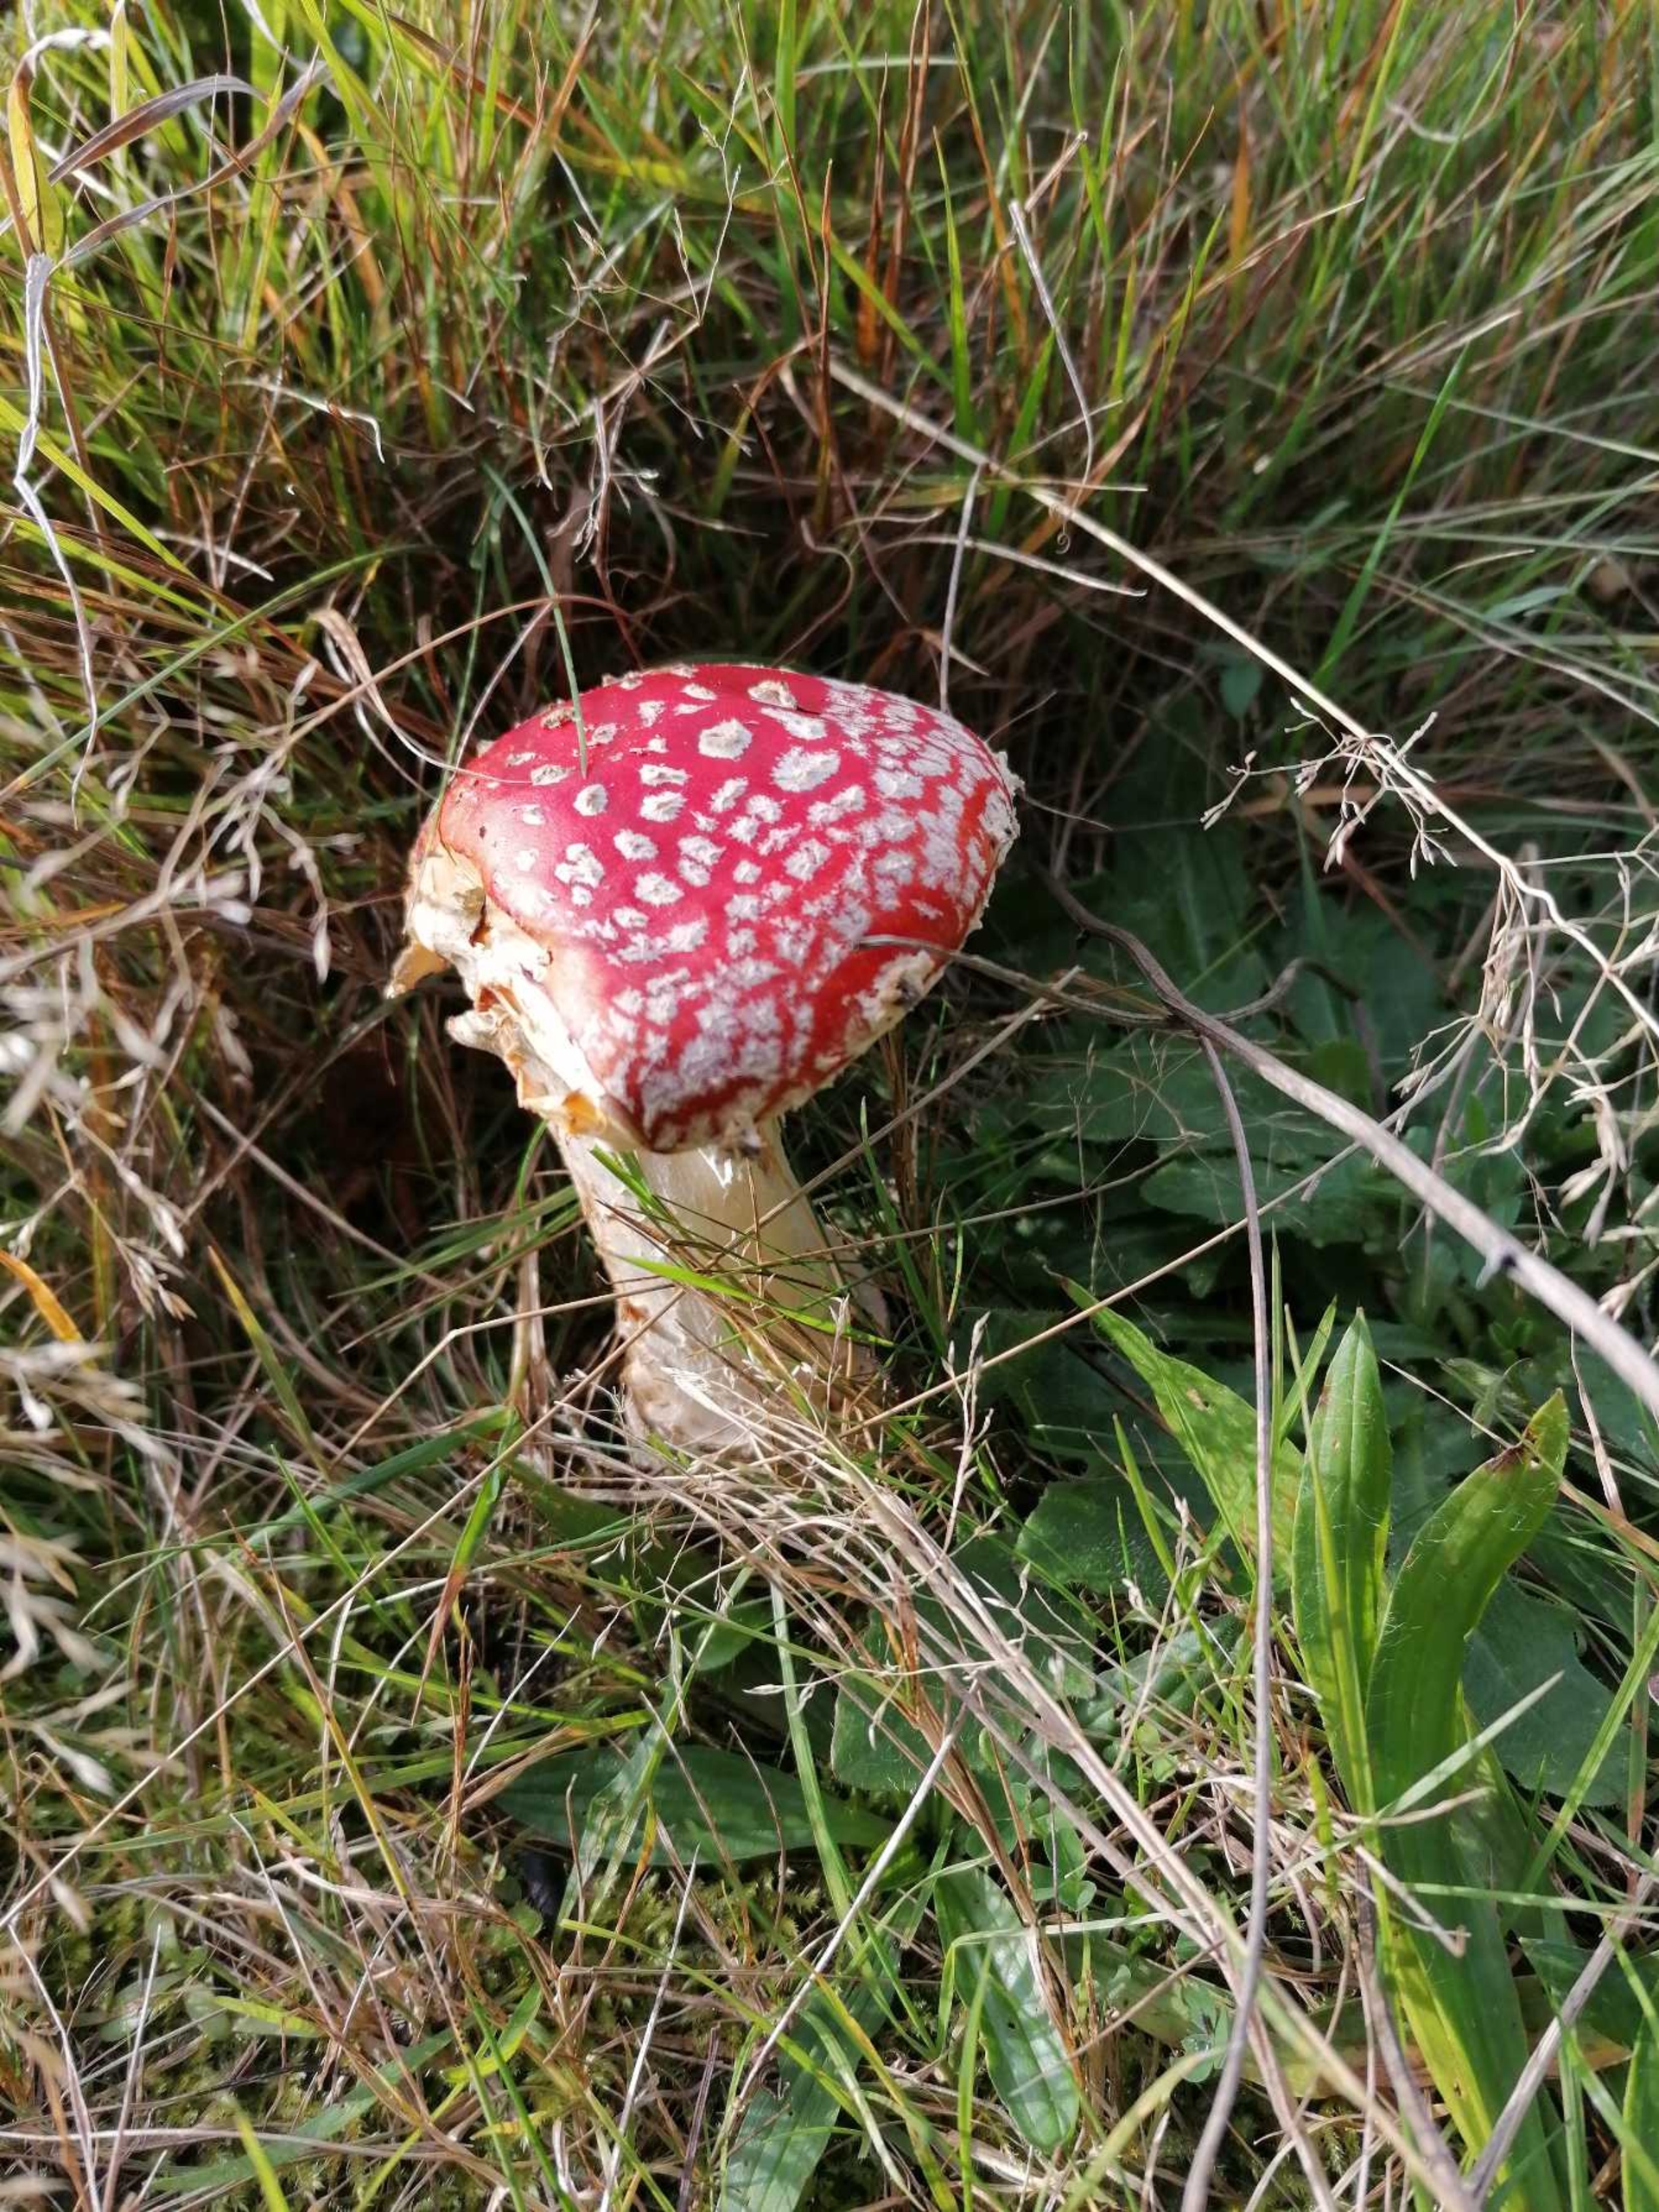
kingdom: Fungi
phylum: Basidiomycota
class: Agaricomycetes
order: Agaricales
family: Amanitaceae
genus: Amanita
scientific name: Amanita muscaria
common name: Rød fluesvamp
